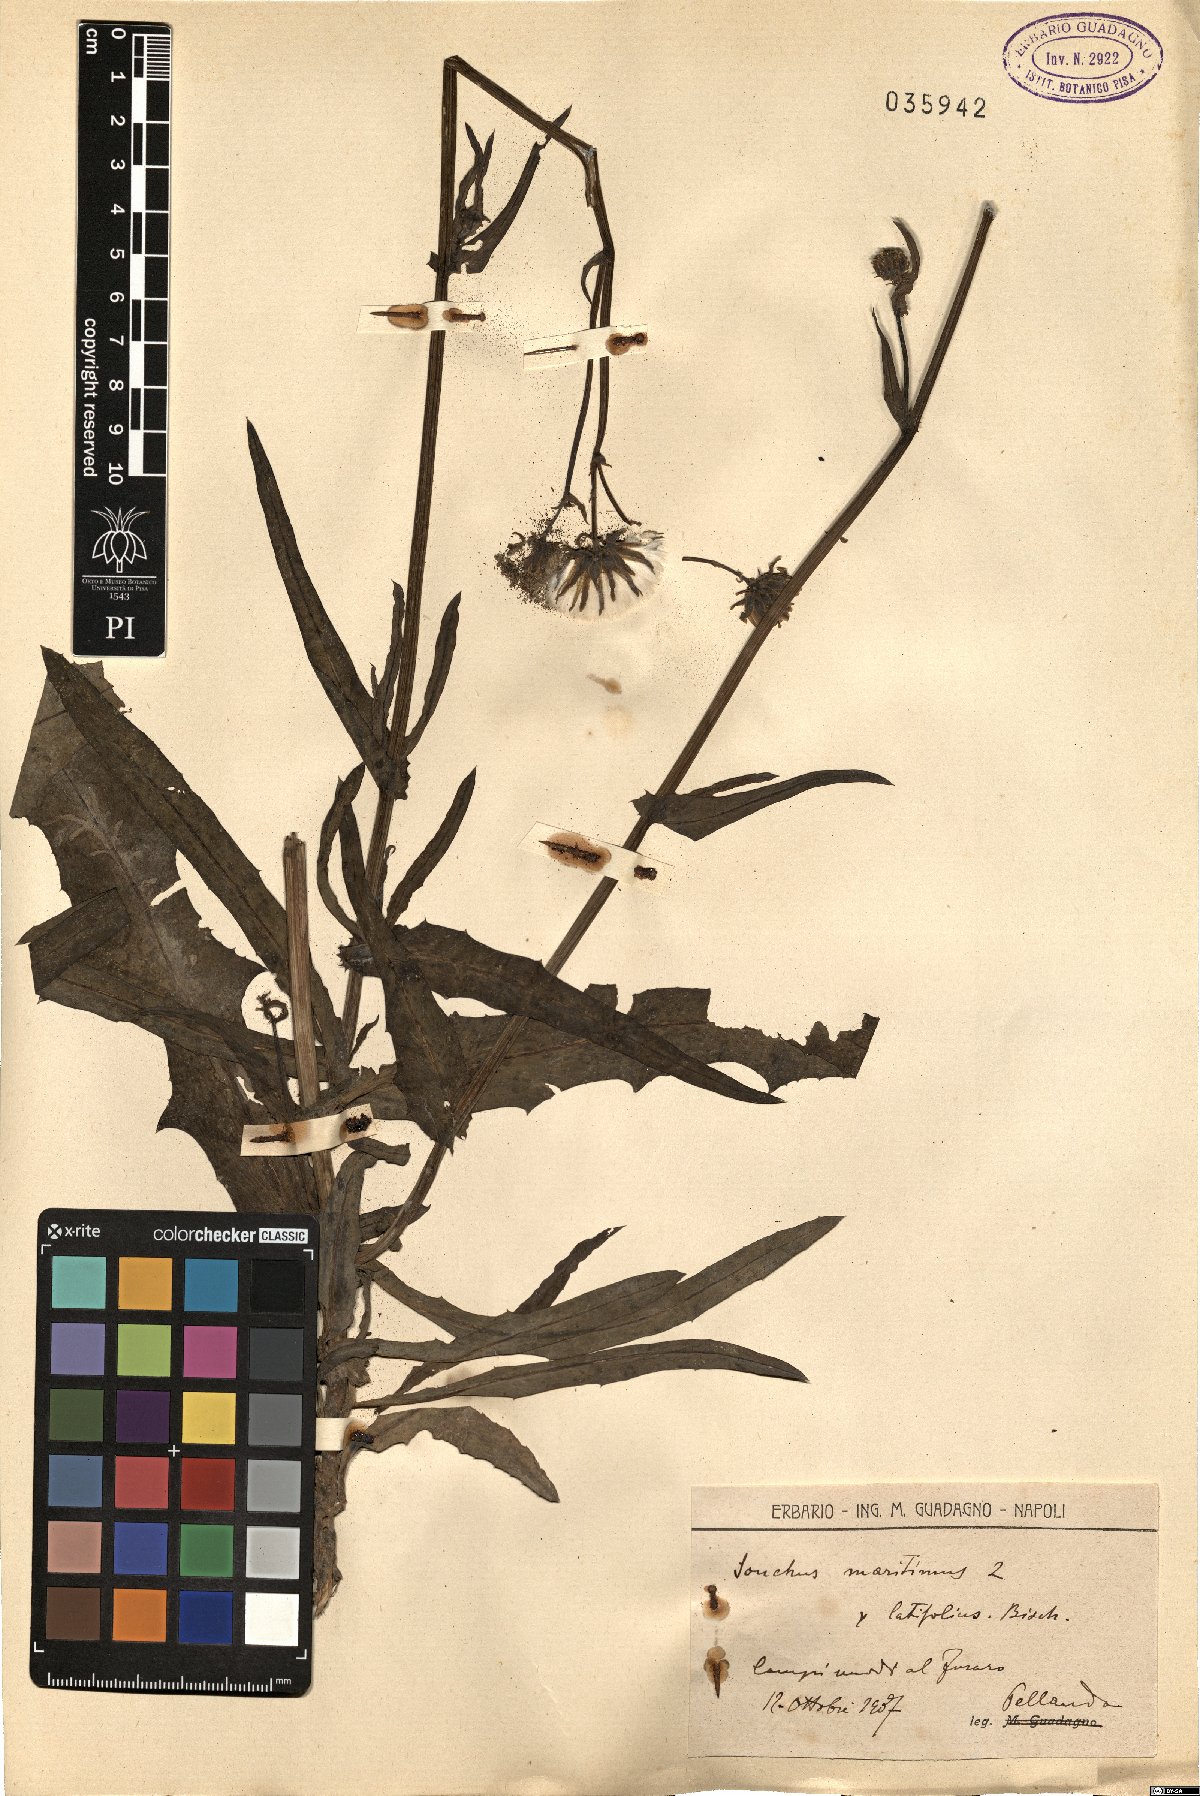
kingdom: Plantae
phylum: Tracheophyta
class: Magnoliopsida
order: Asterales
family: Asteraceae
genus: Sonchus
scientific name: Sonchus maritimus
